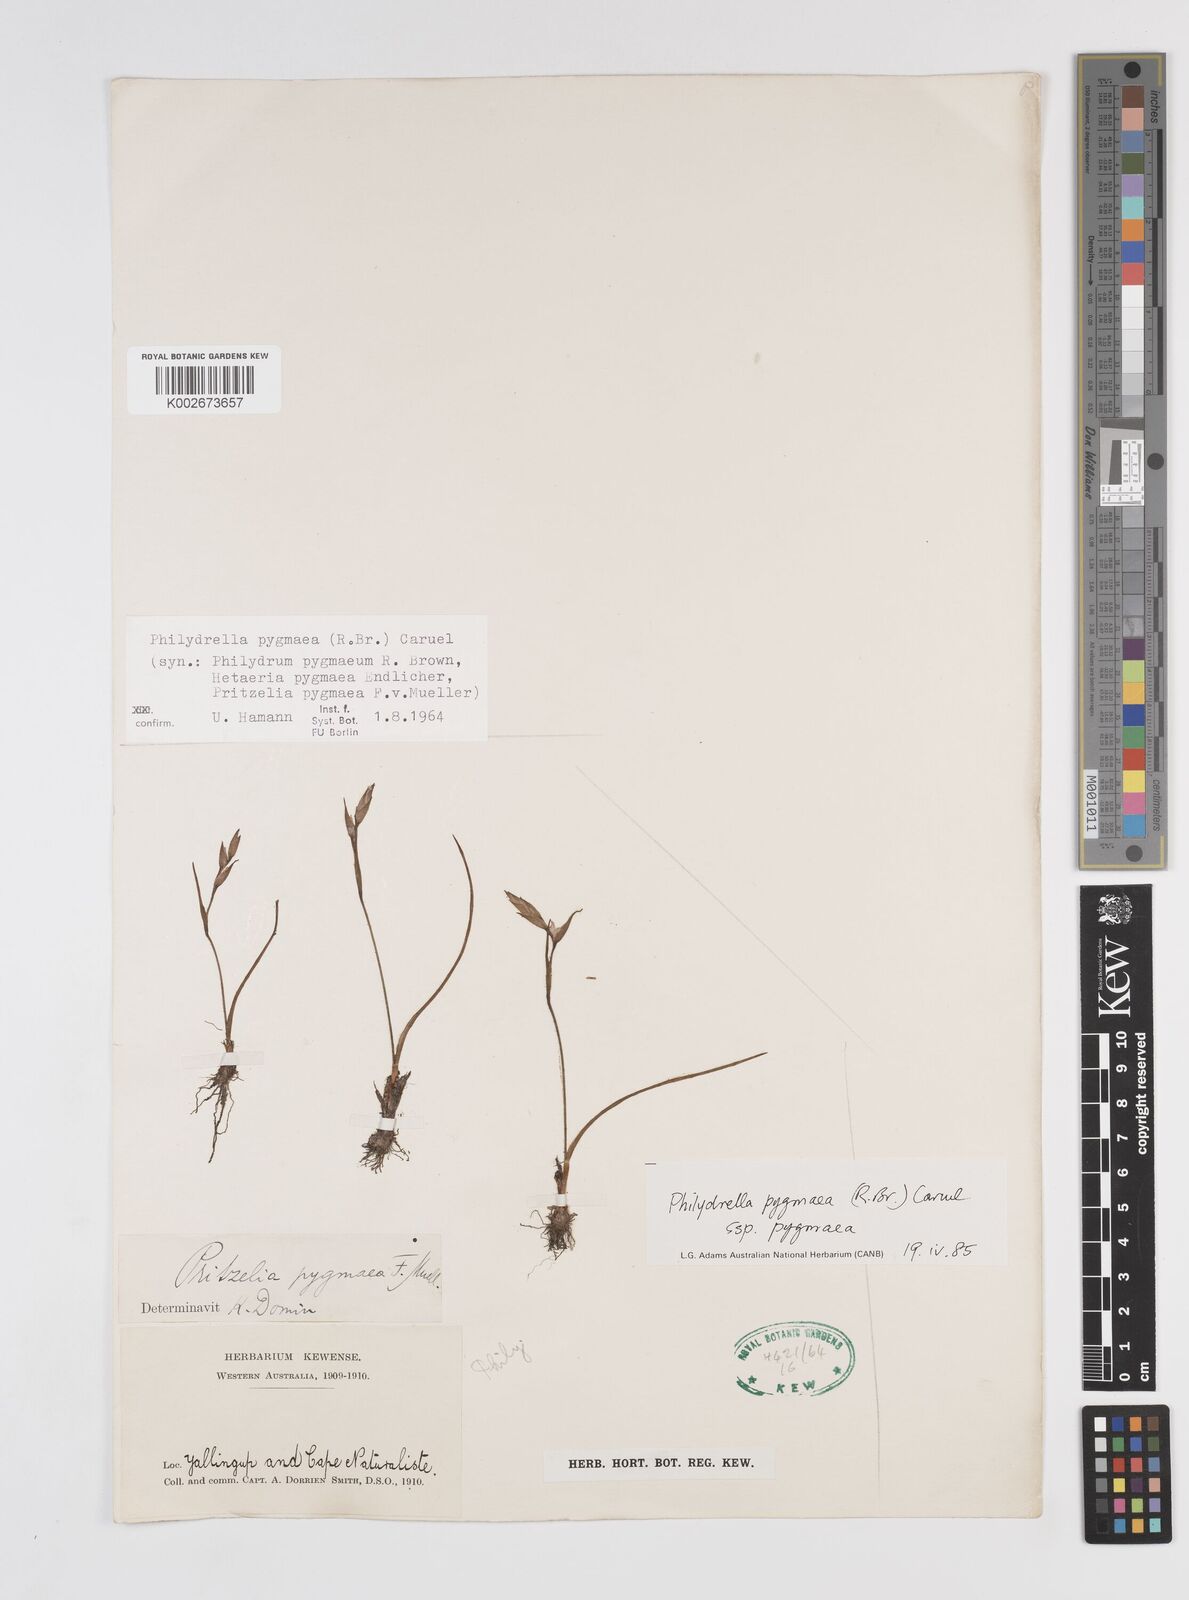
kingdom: Plantae
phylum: Tracheophyta
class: Liliopsida
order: Commelinales
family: Philydraceae
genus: Philydrella
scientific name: Philydrella pygmaea
